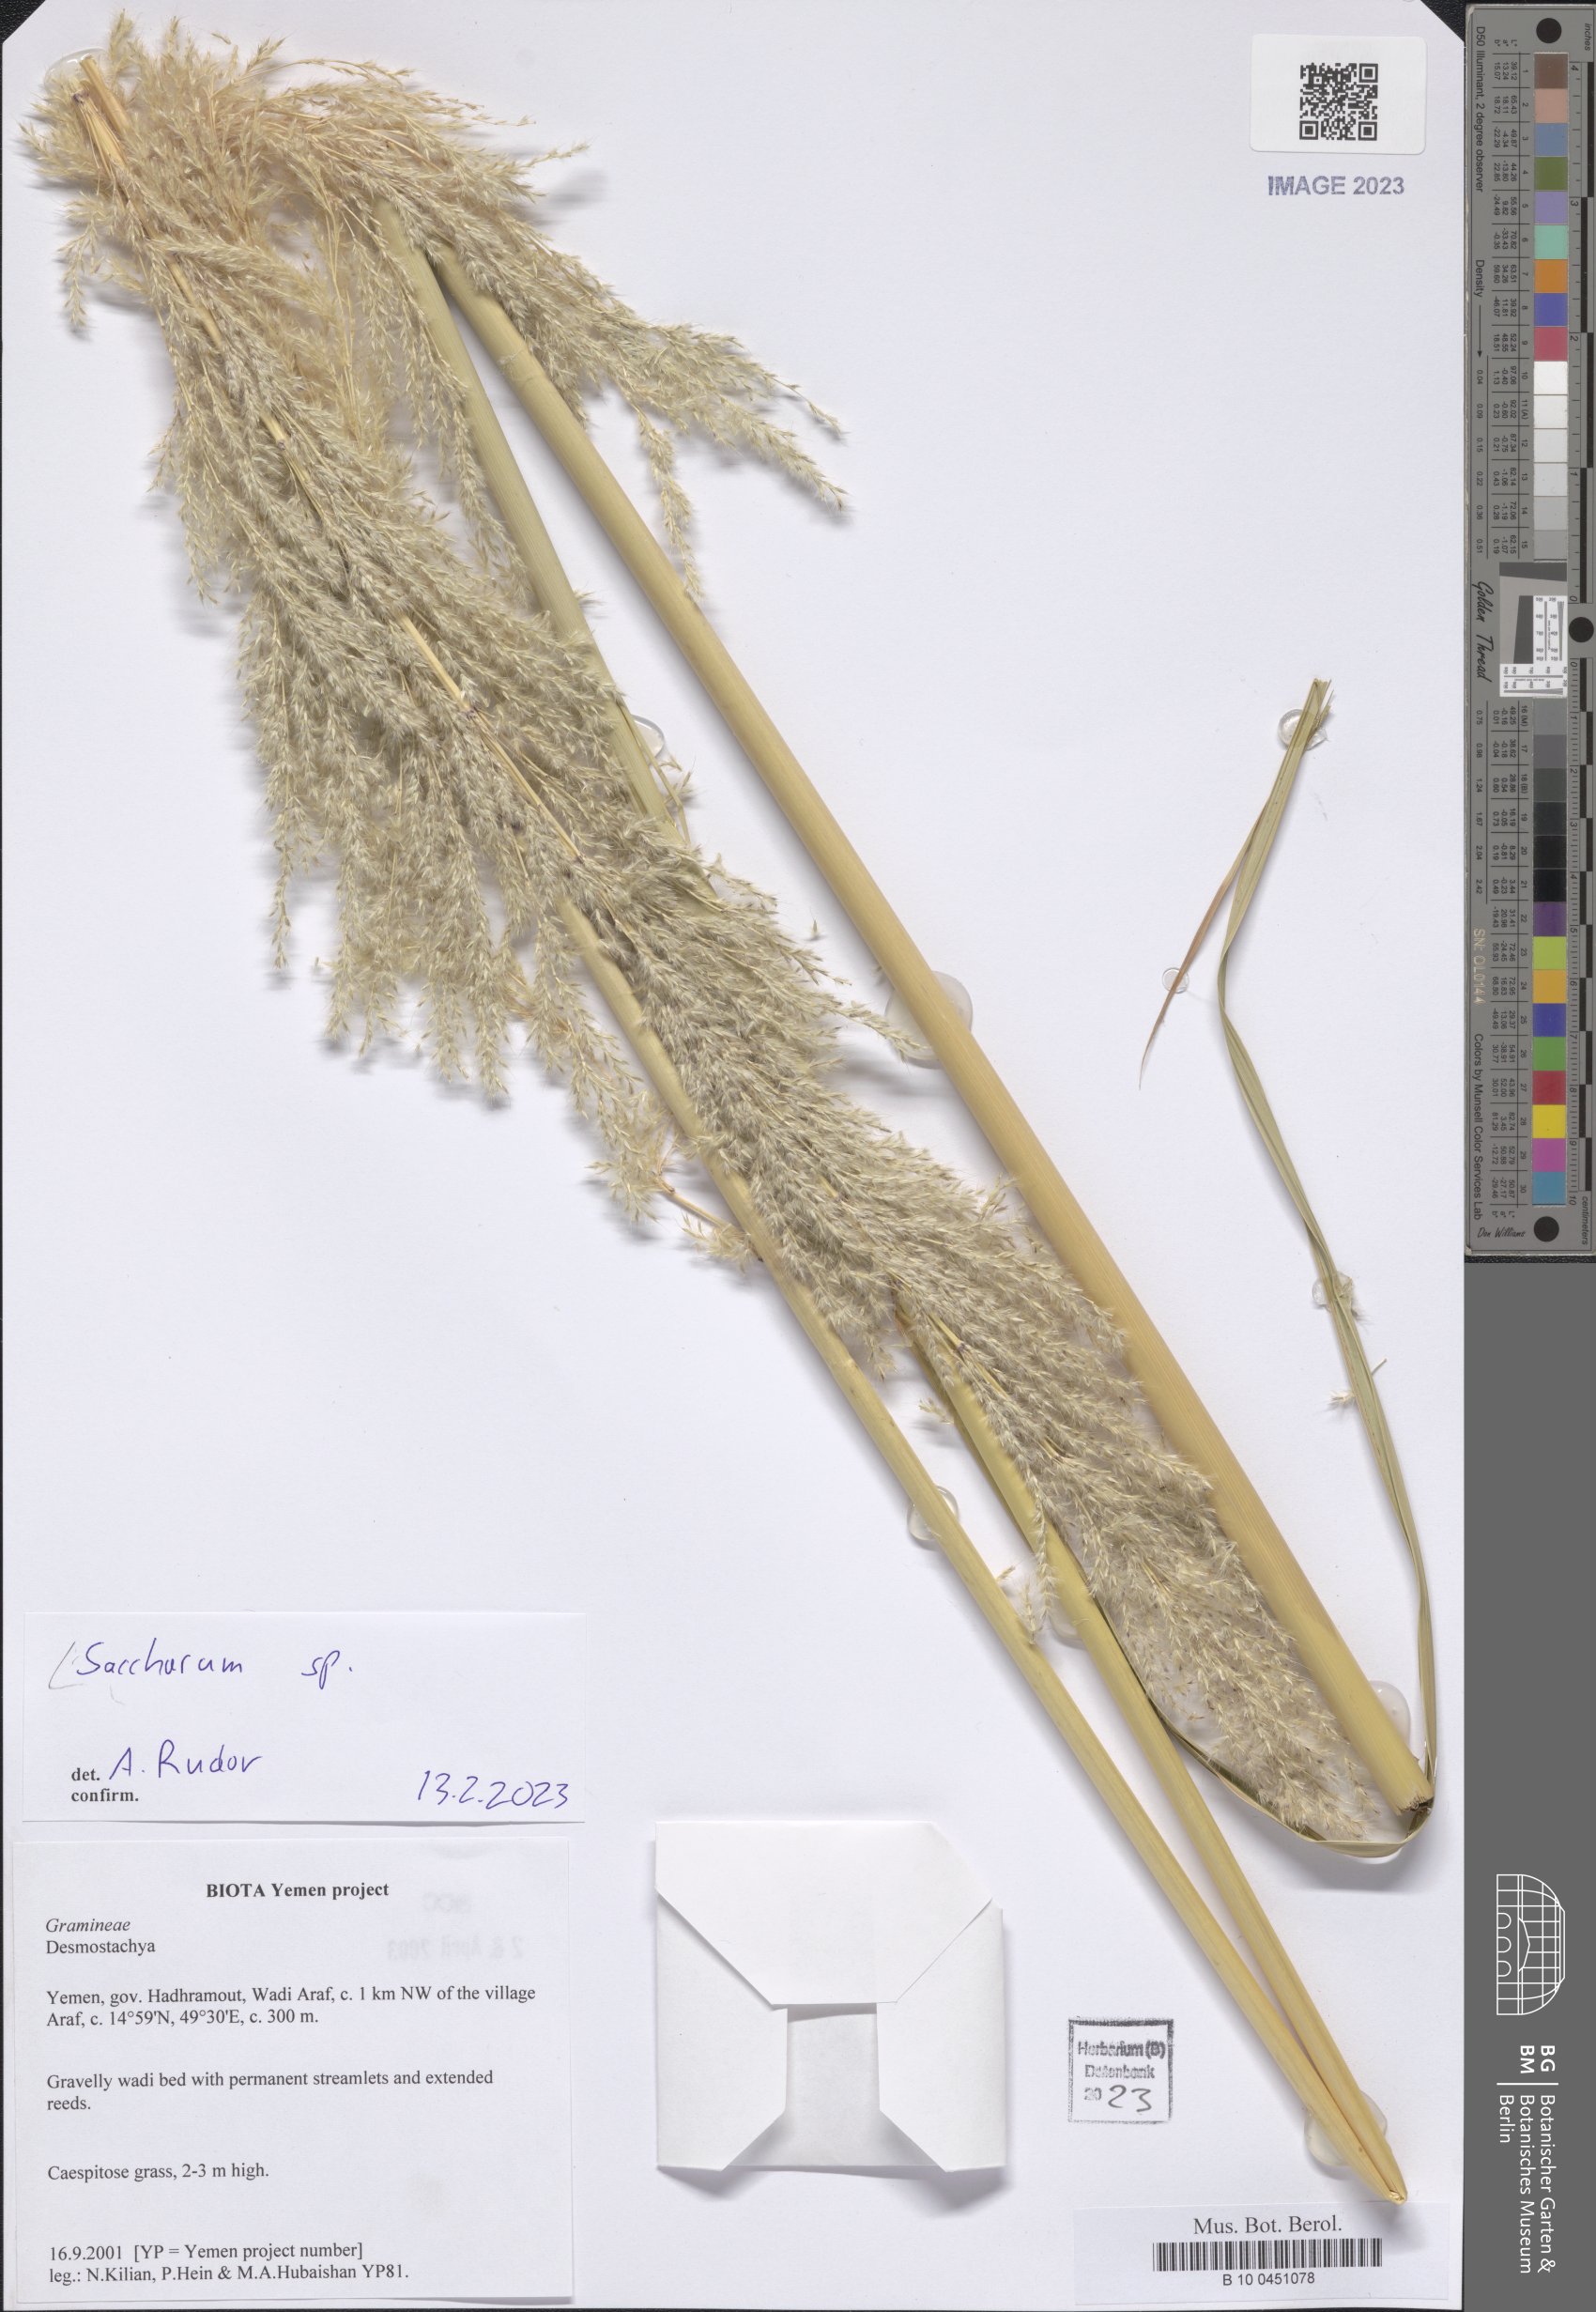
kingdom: Plantae
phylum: Tracheophyta
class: Liliopsida
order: Poales
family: Poaceae
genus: Saccharum
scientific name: Saccharum
